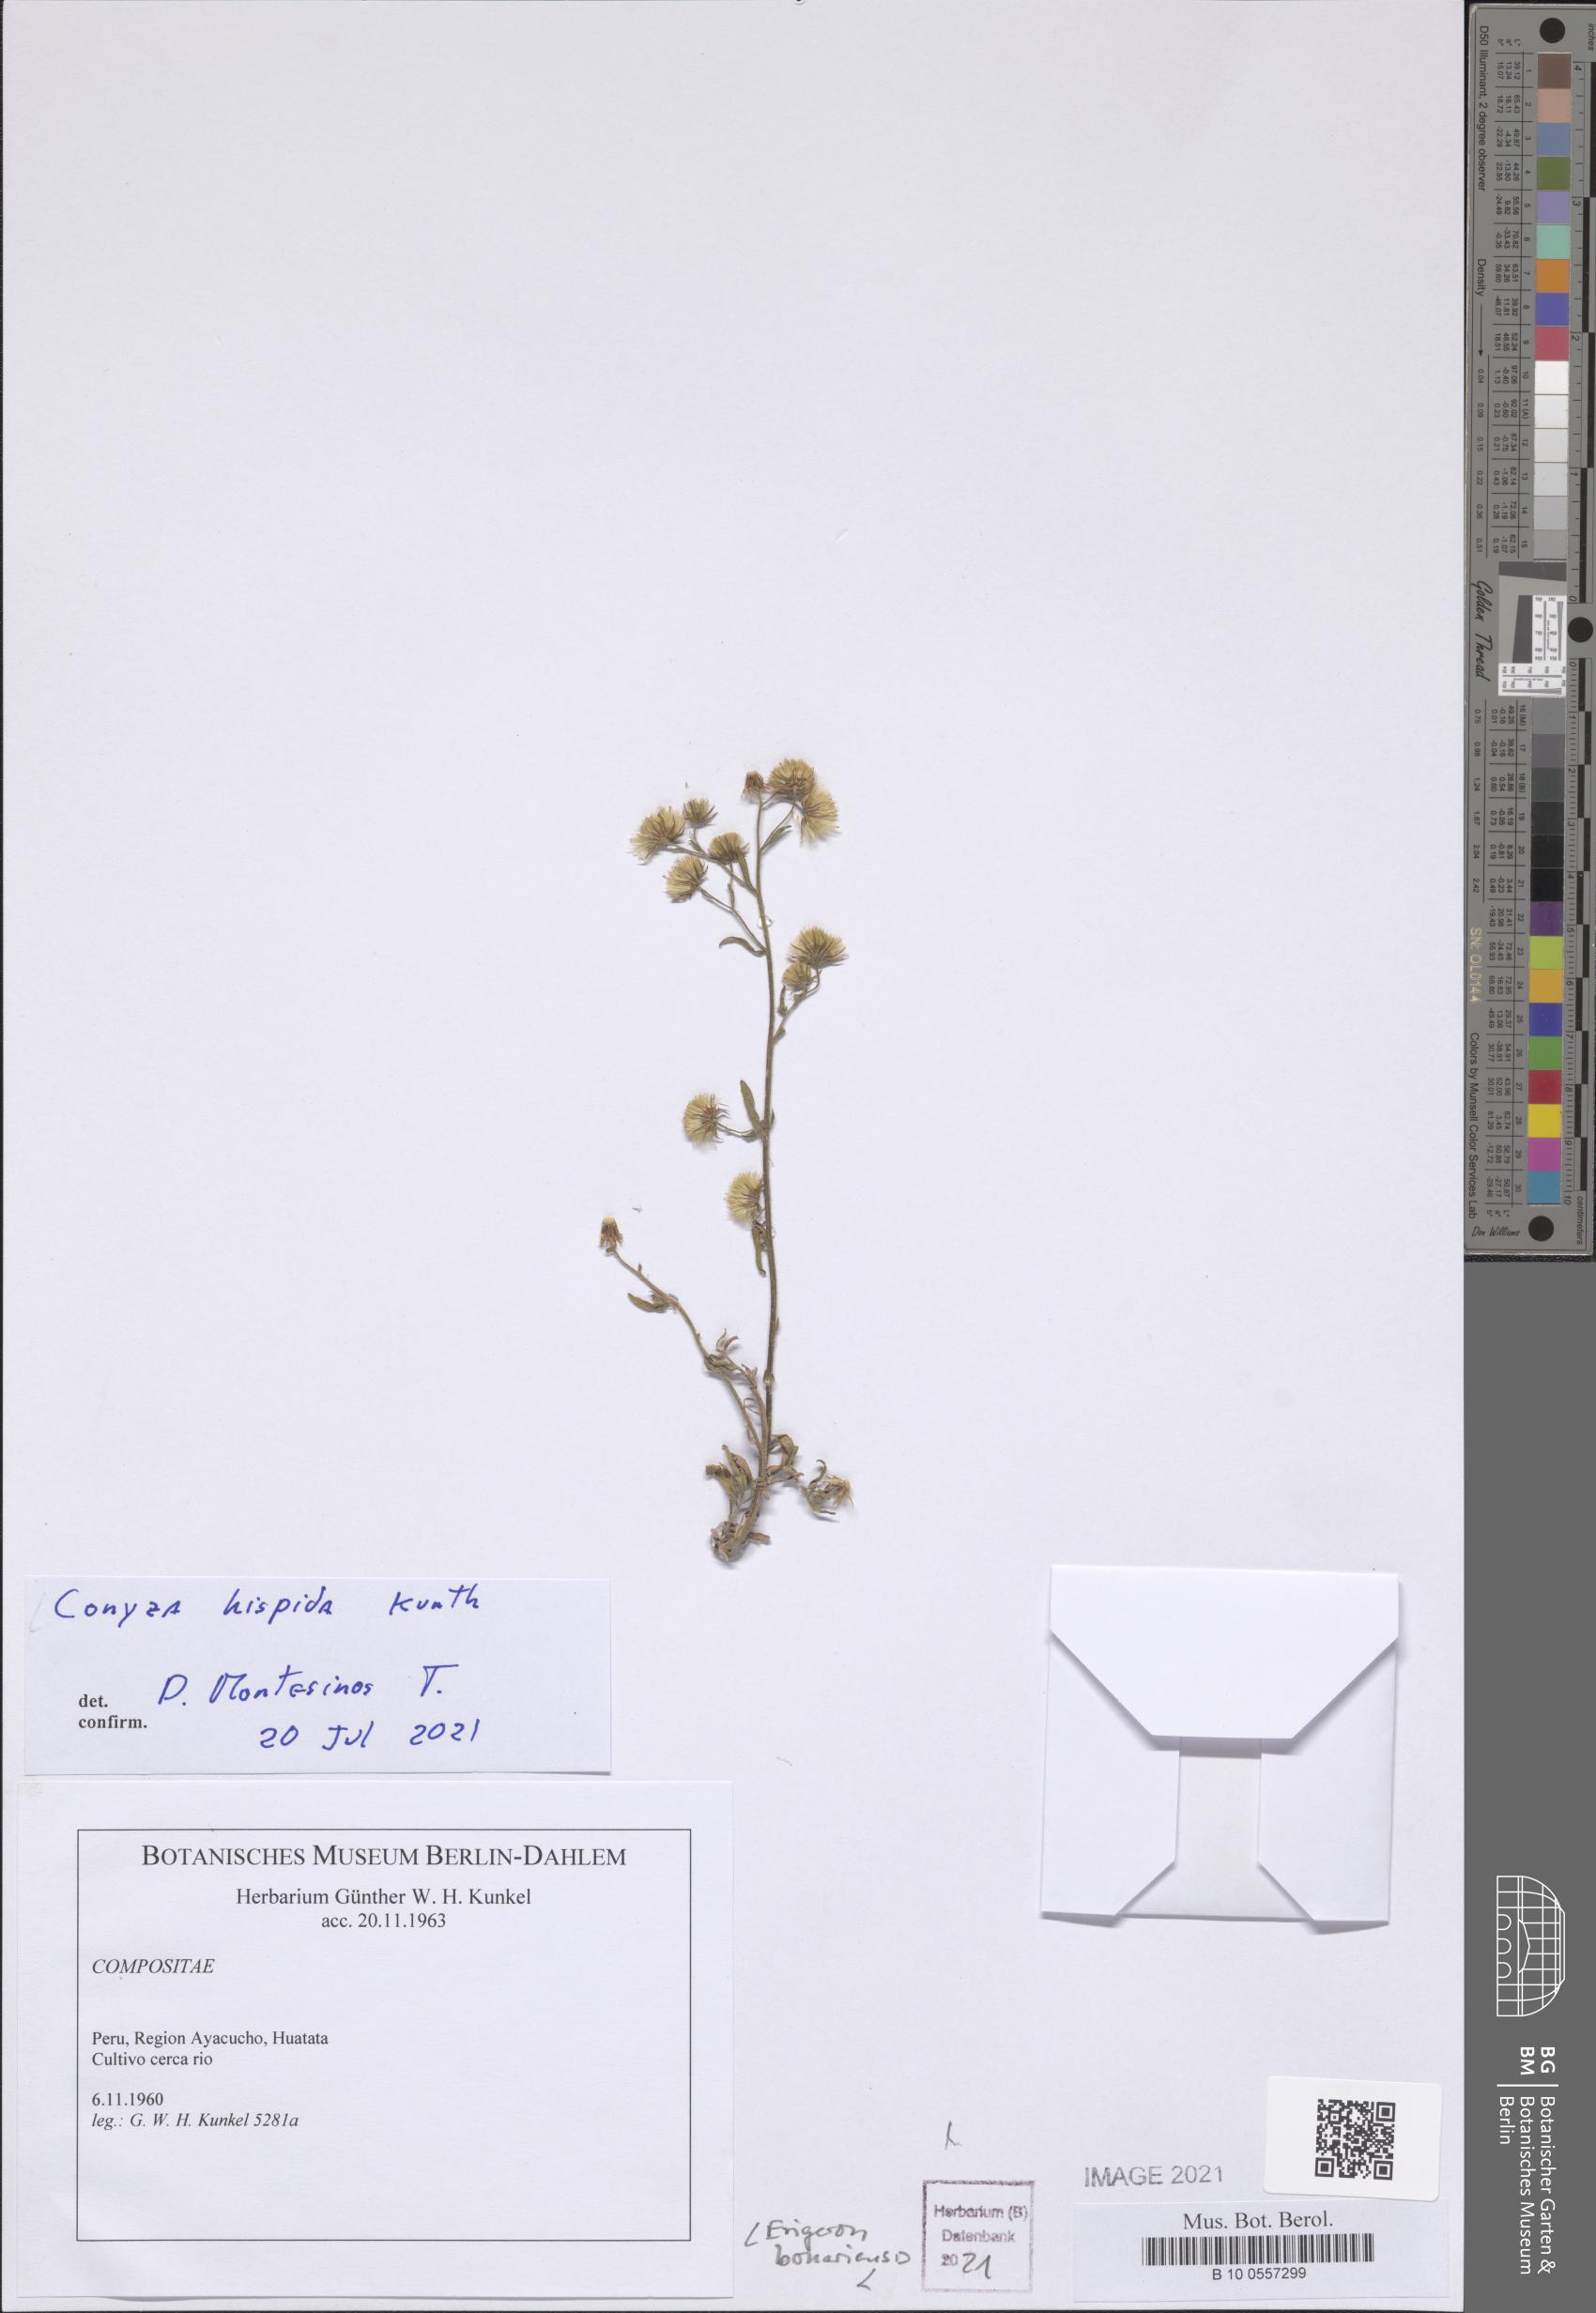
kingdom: Plantae
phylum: Tracheophyta
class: Magnoliopsida
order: Asterales
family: Asteraceae
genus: Helogyne
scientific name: Helogyne
